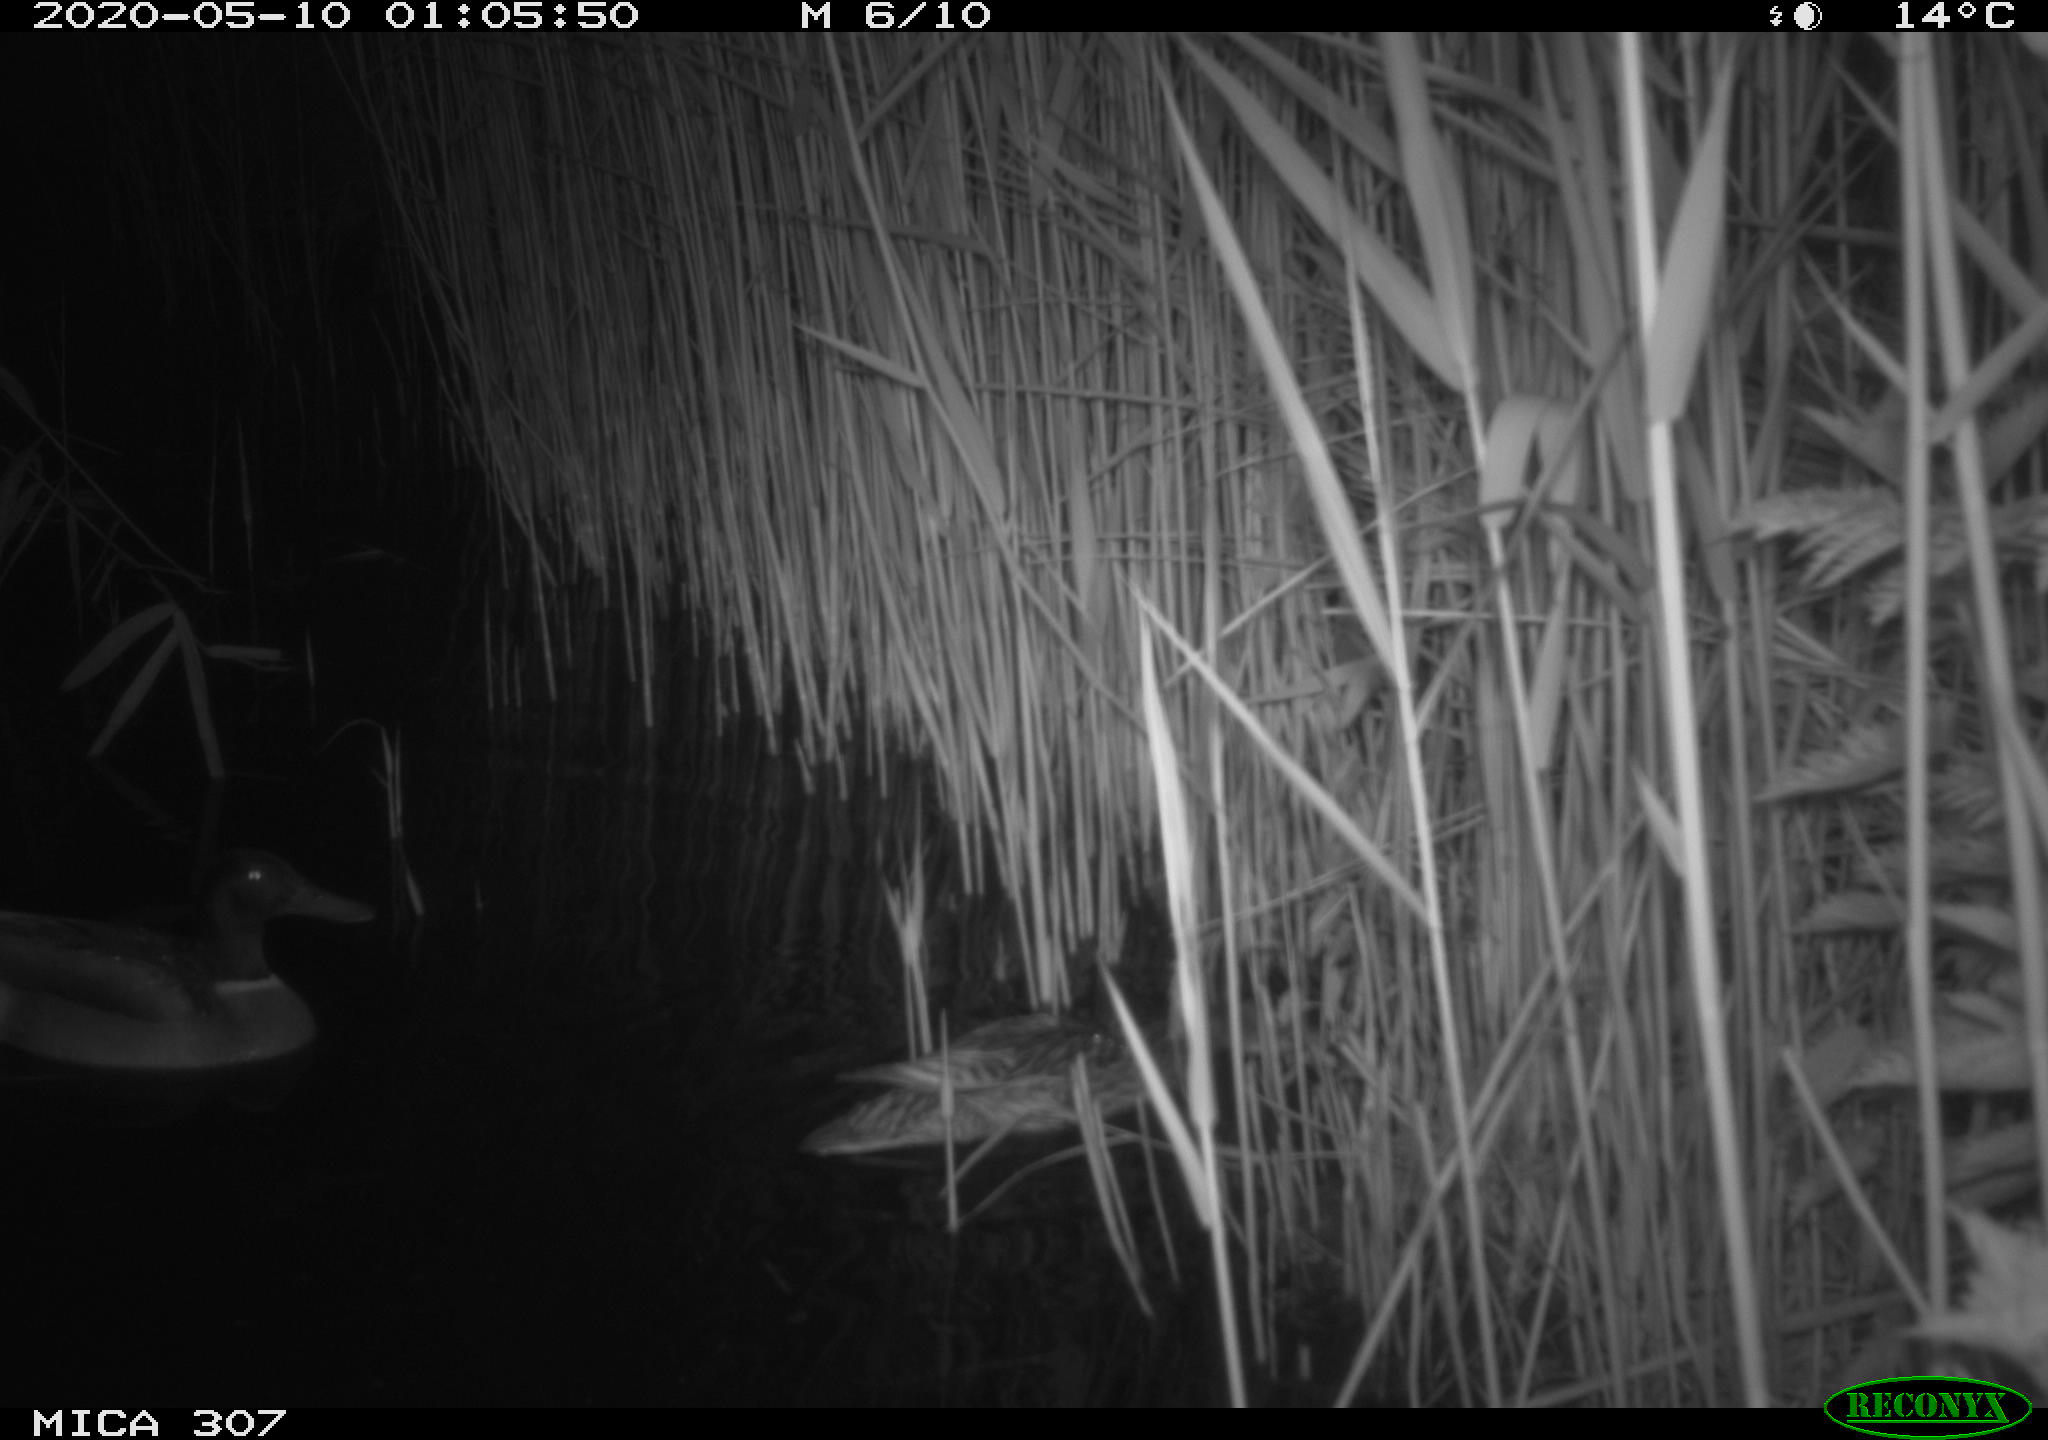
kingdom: Animalia
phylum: Chordata
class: Aves
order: Anseriformes
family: Anatidae
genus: Anas
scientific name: Anas platyrhynchos
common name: Mallard
